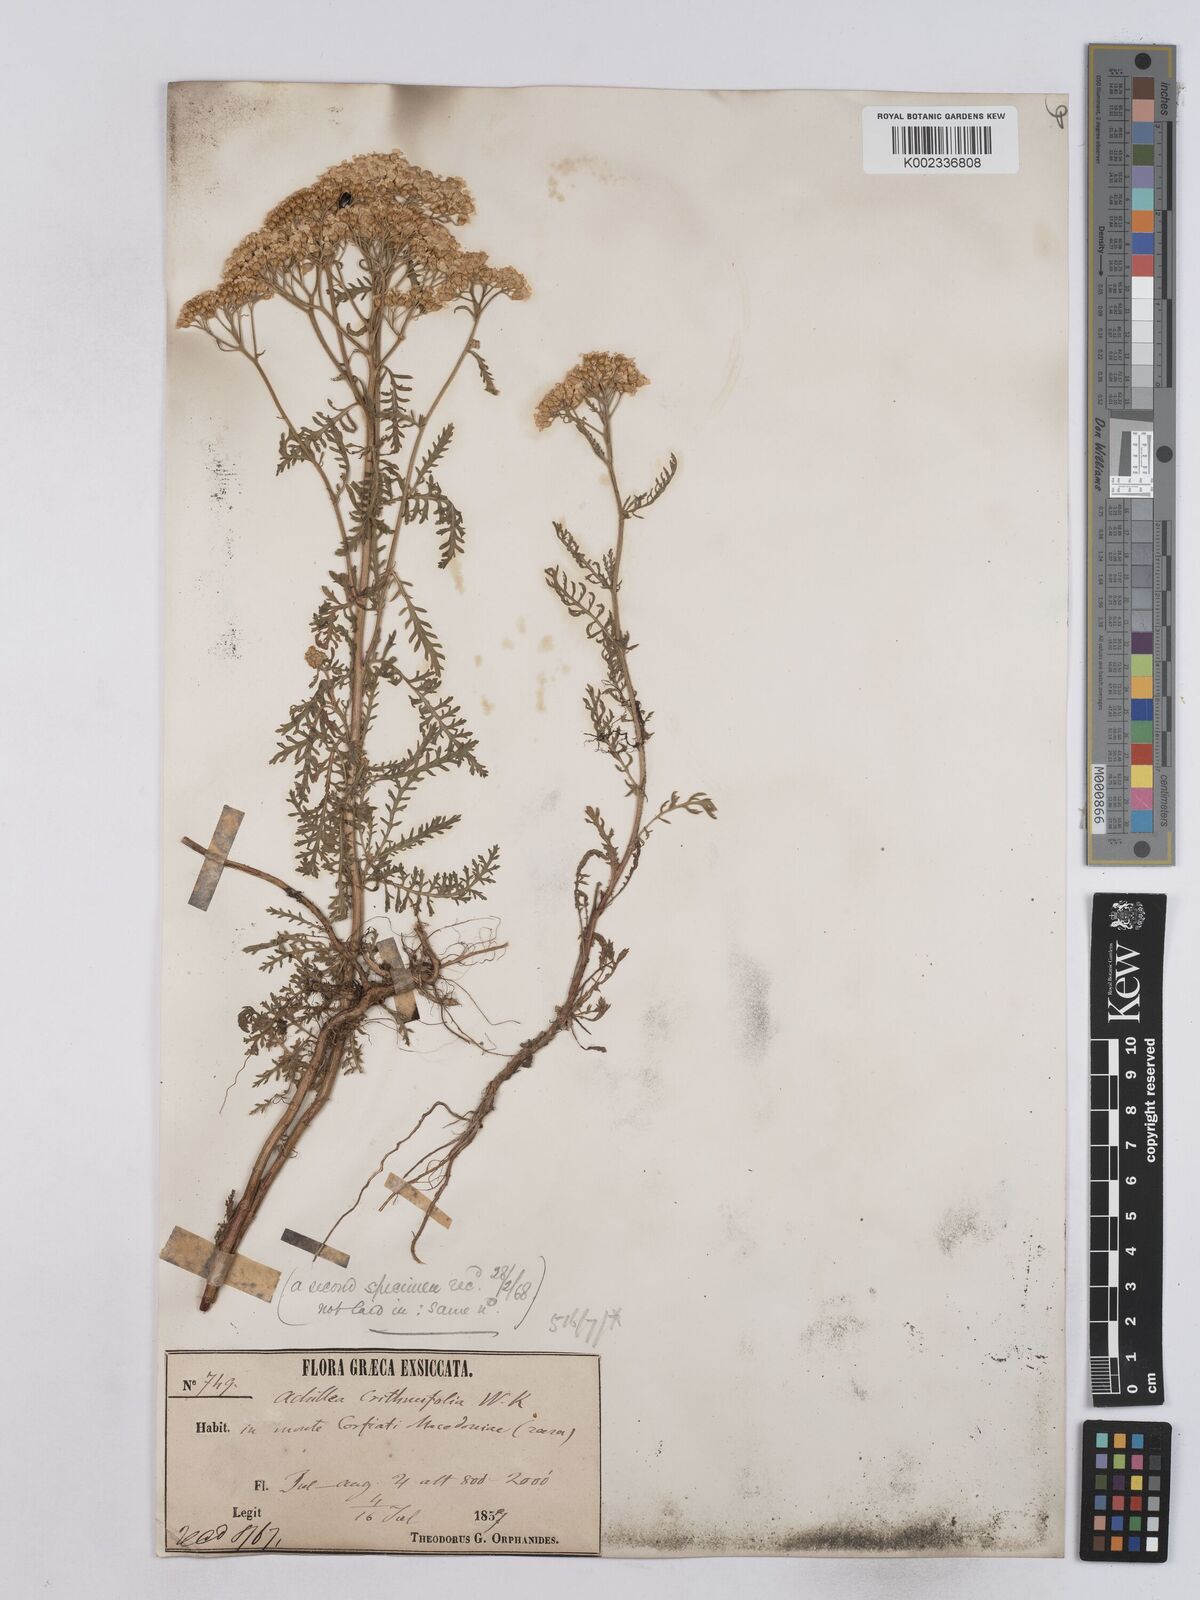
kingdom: Plantae
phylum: Tracheophyta
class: Magnoliopsida
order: Asterales
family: Asteraceae
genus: Achillea
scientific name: Achillea crithmifolia
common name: Yarrow
